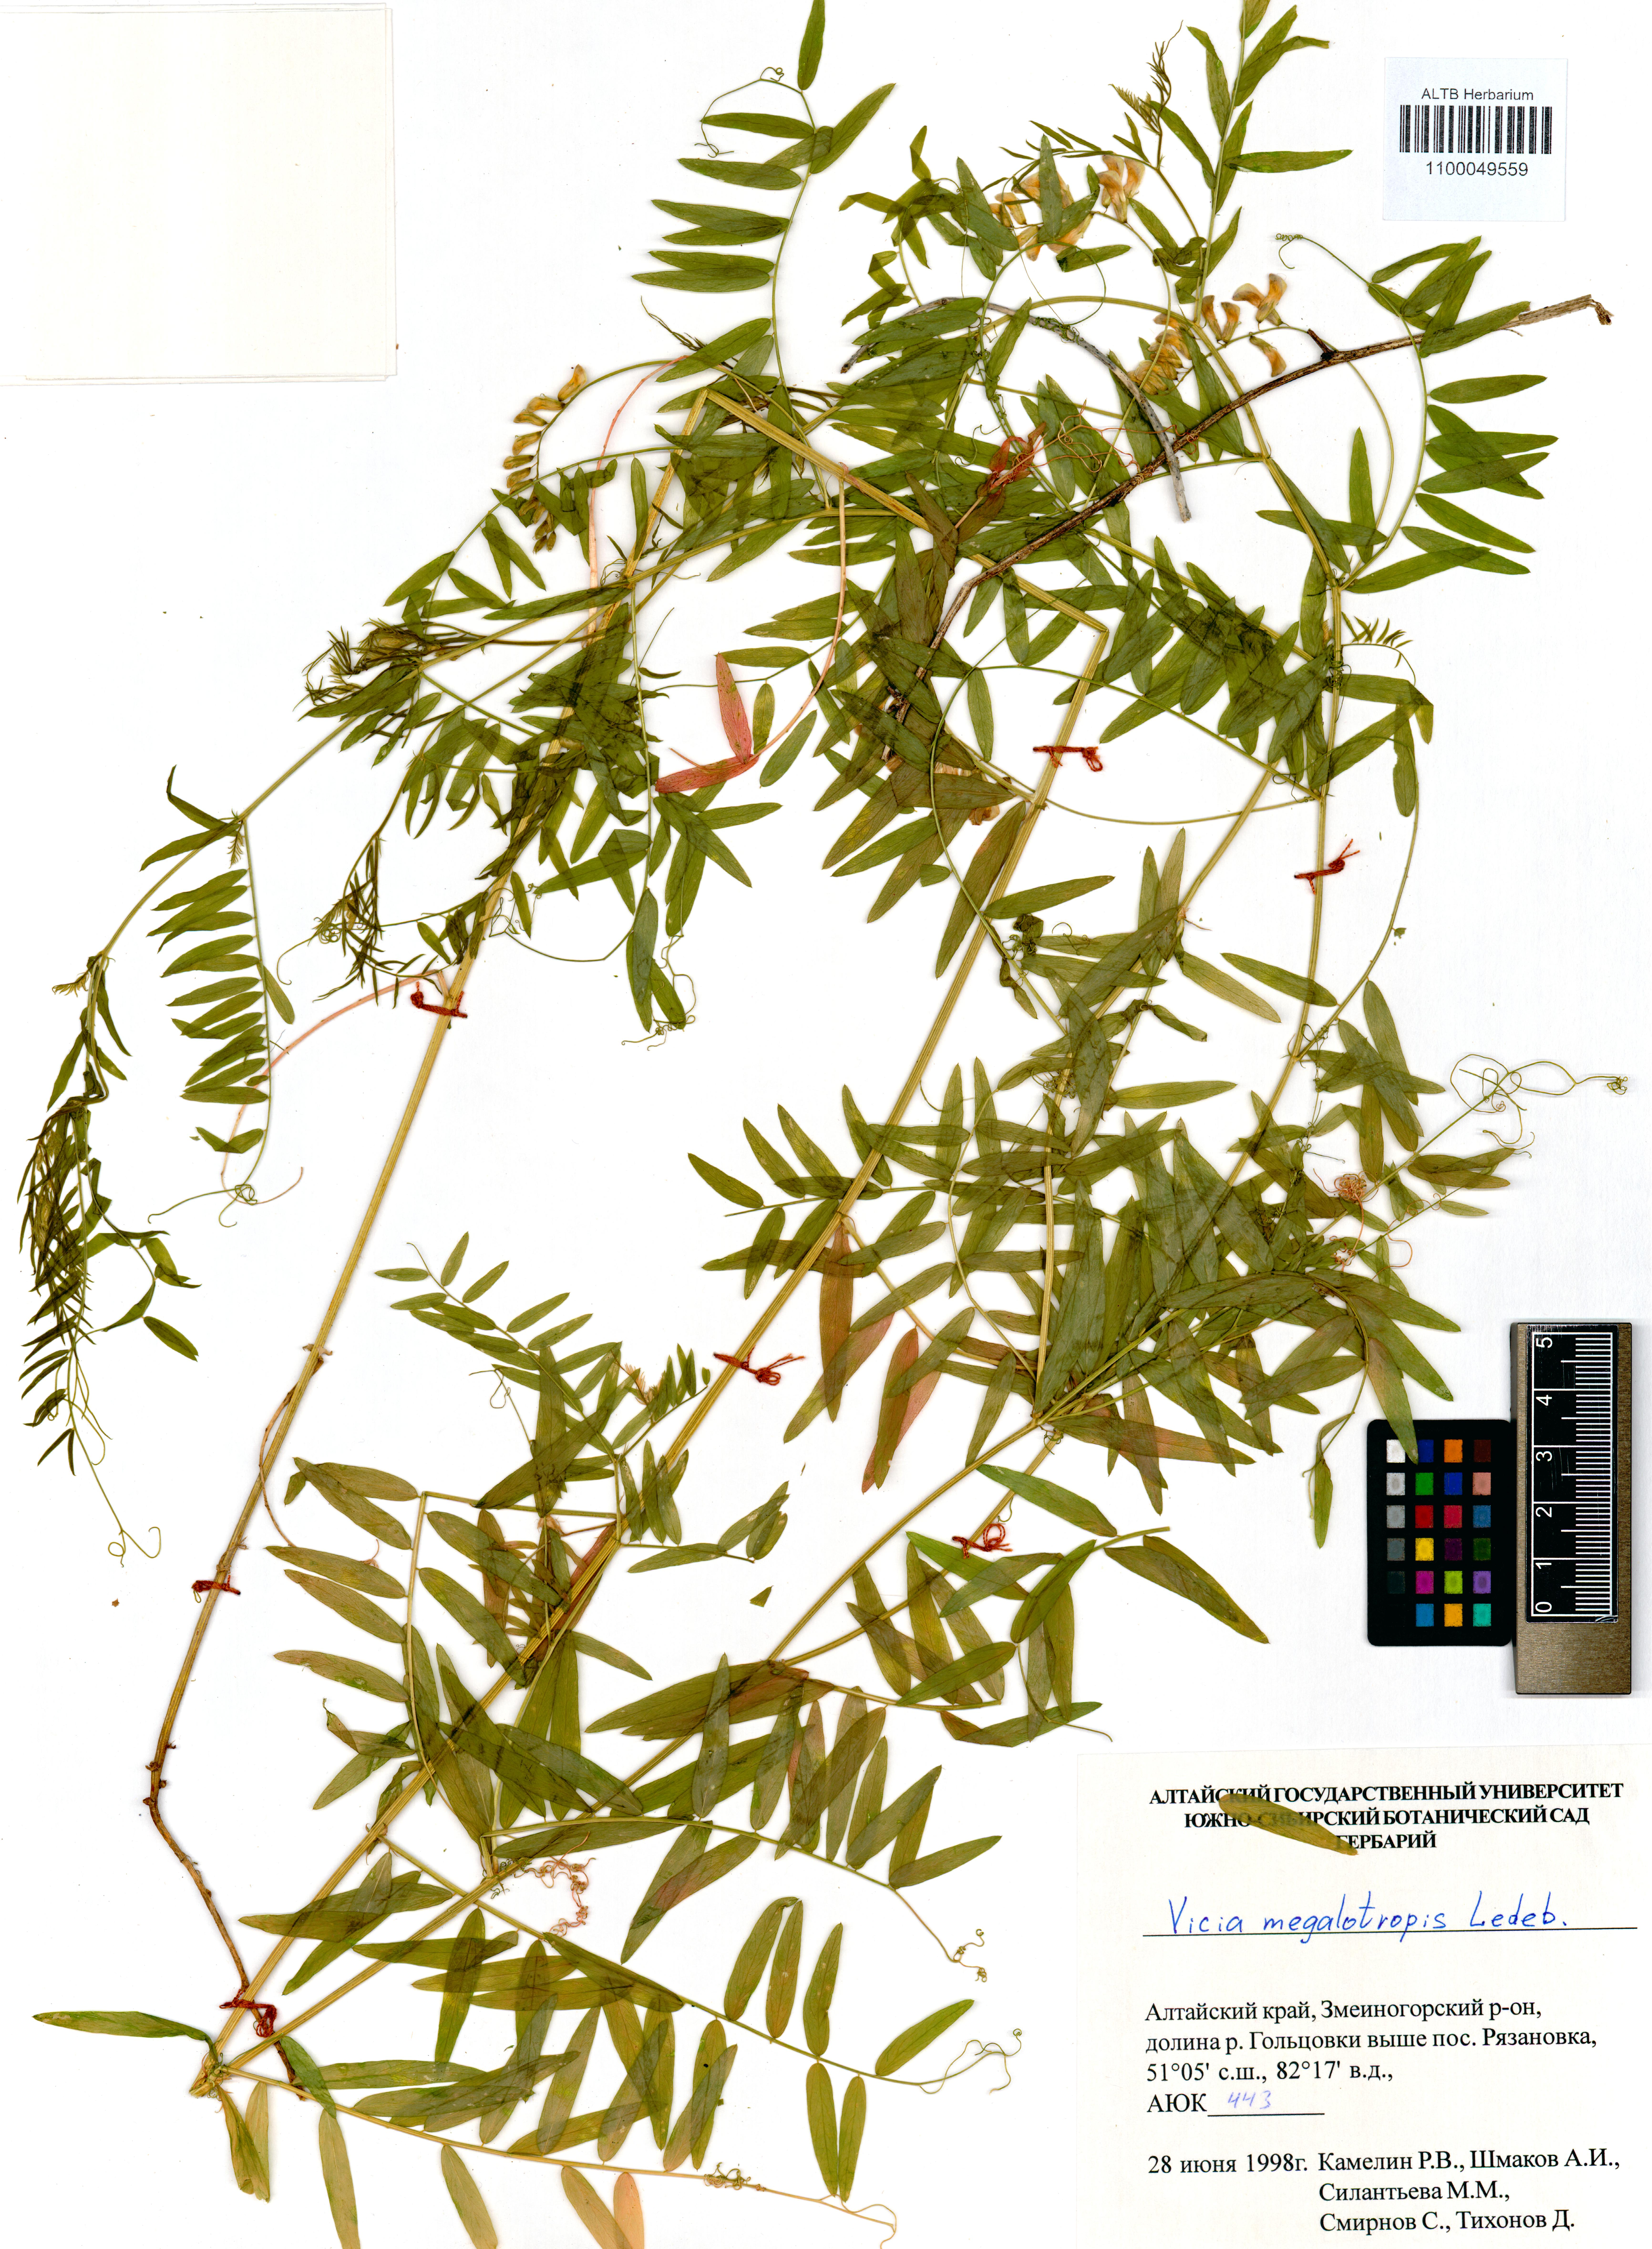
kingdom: Plantae
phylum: Tracheophyta
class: Magnoliopsida
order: Fabales
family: Fabaceae
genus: Vicia
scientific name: Vicia megalotropis
